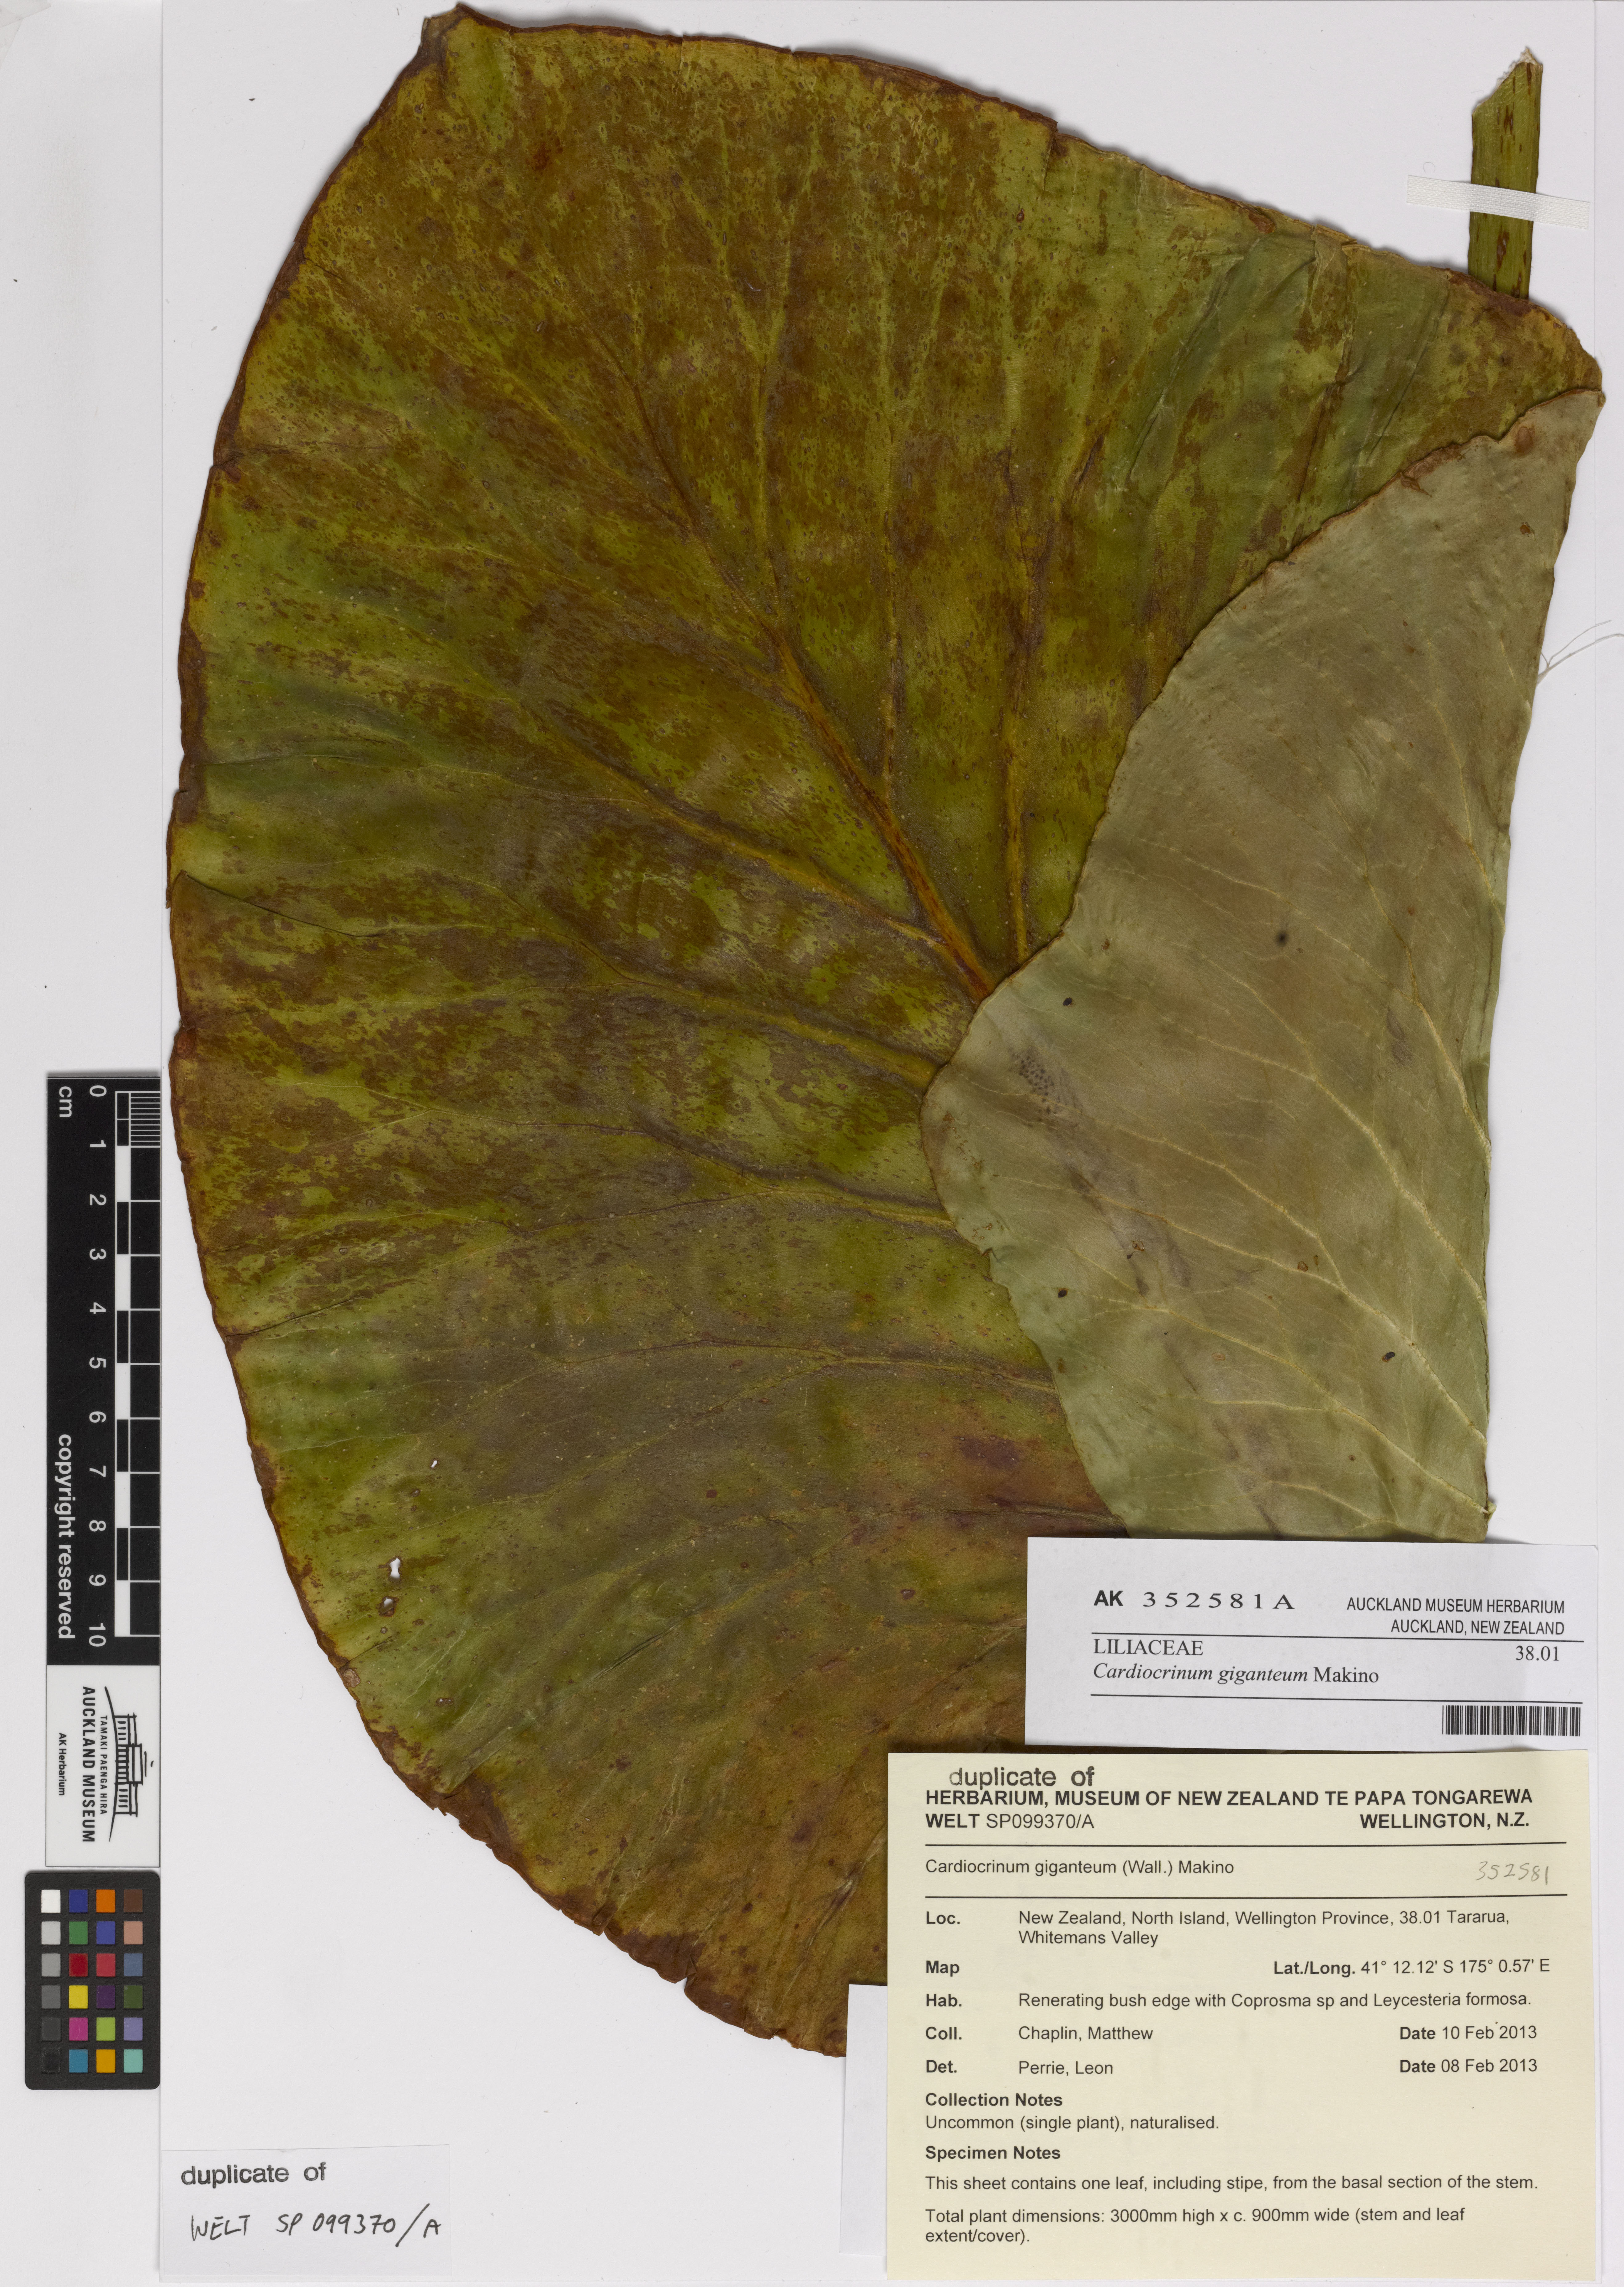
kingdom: Plantae
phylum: Tracheophyta
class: Liliopsida
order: Liliales
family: Liliaceae
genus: Cardiocrinum
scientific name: Cardiocrinum giganteum
